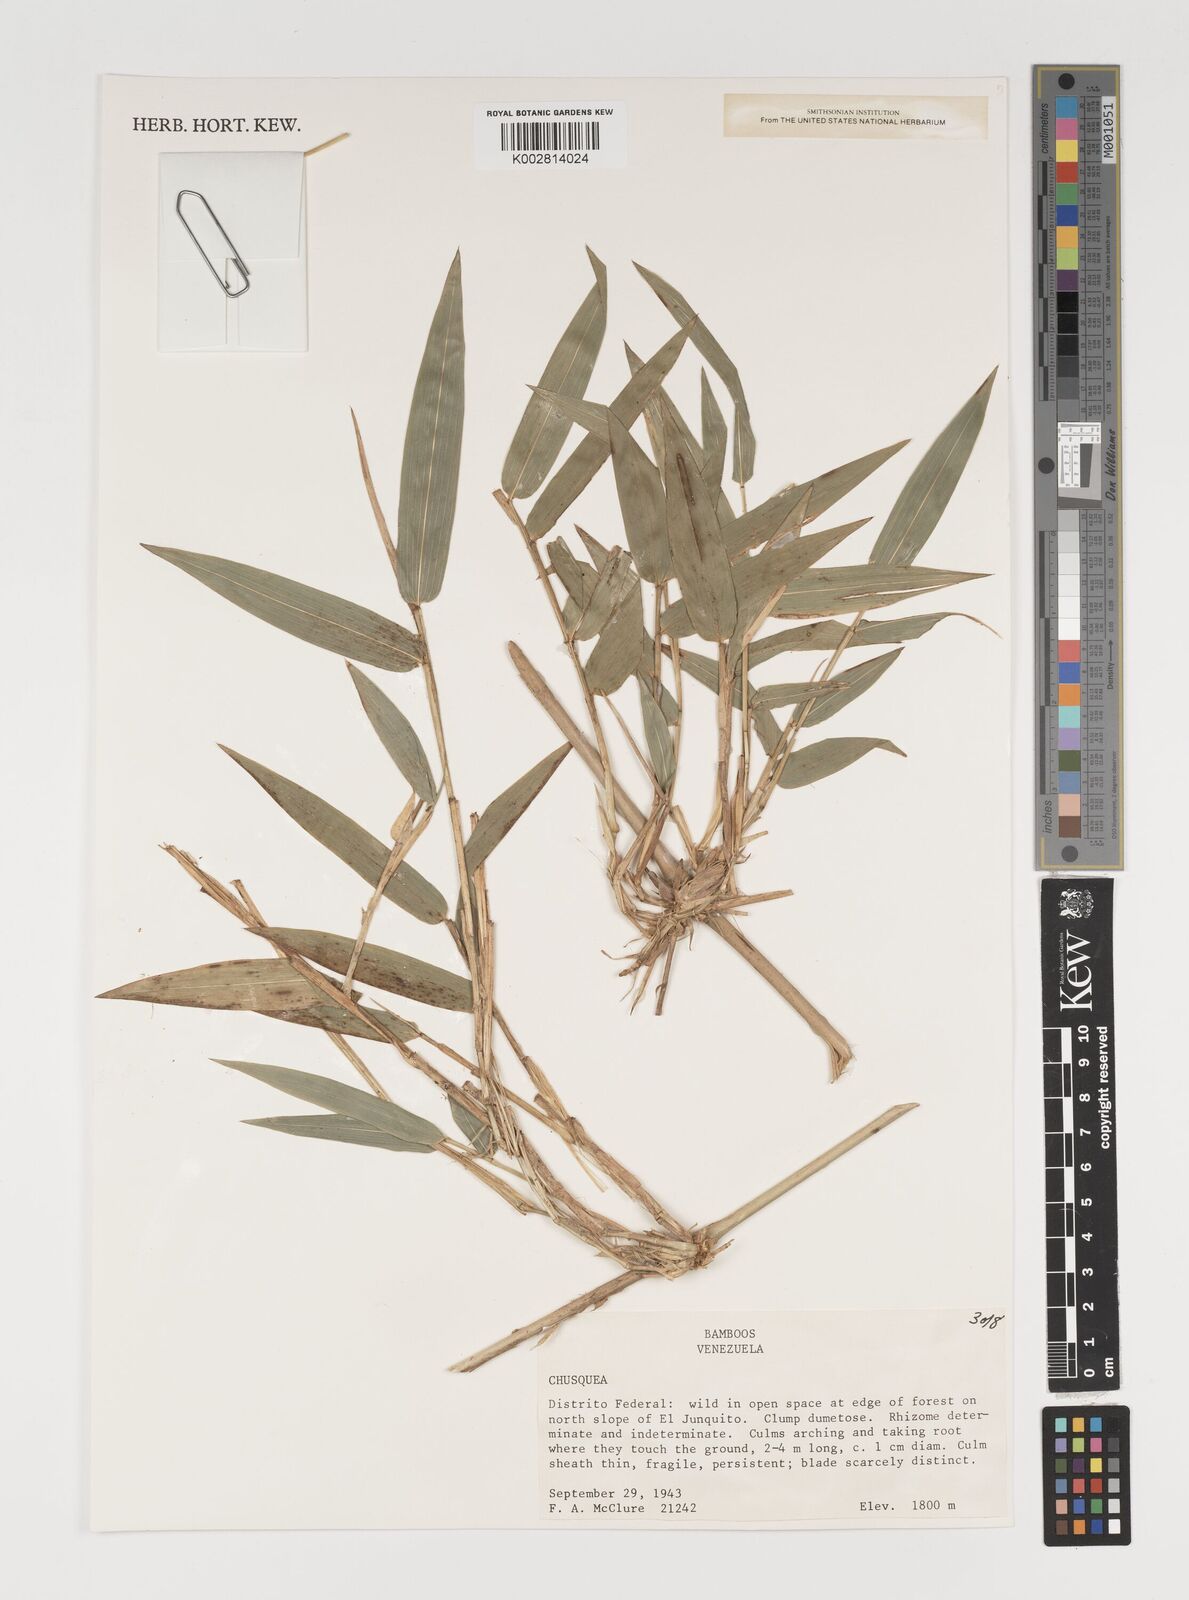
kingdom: Plantae
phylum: Tracheophyta
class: Liliopsida
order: Poales
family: Poaceae
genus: Chusquea
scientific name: Chusquea
